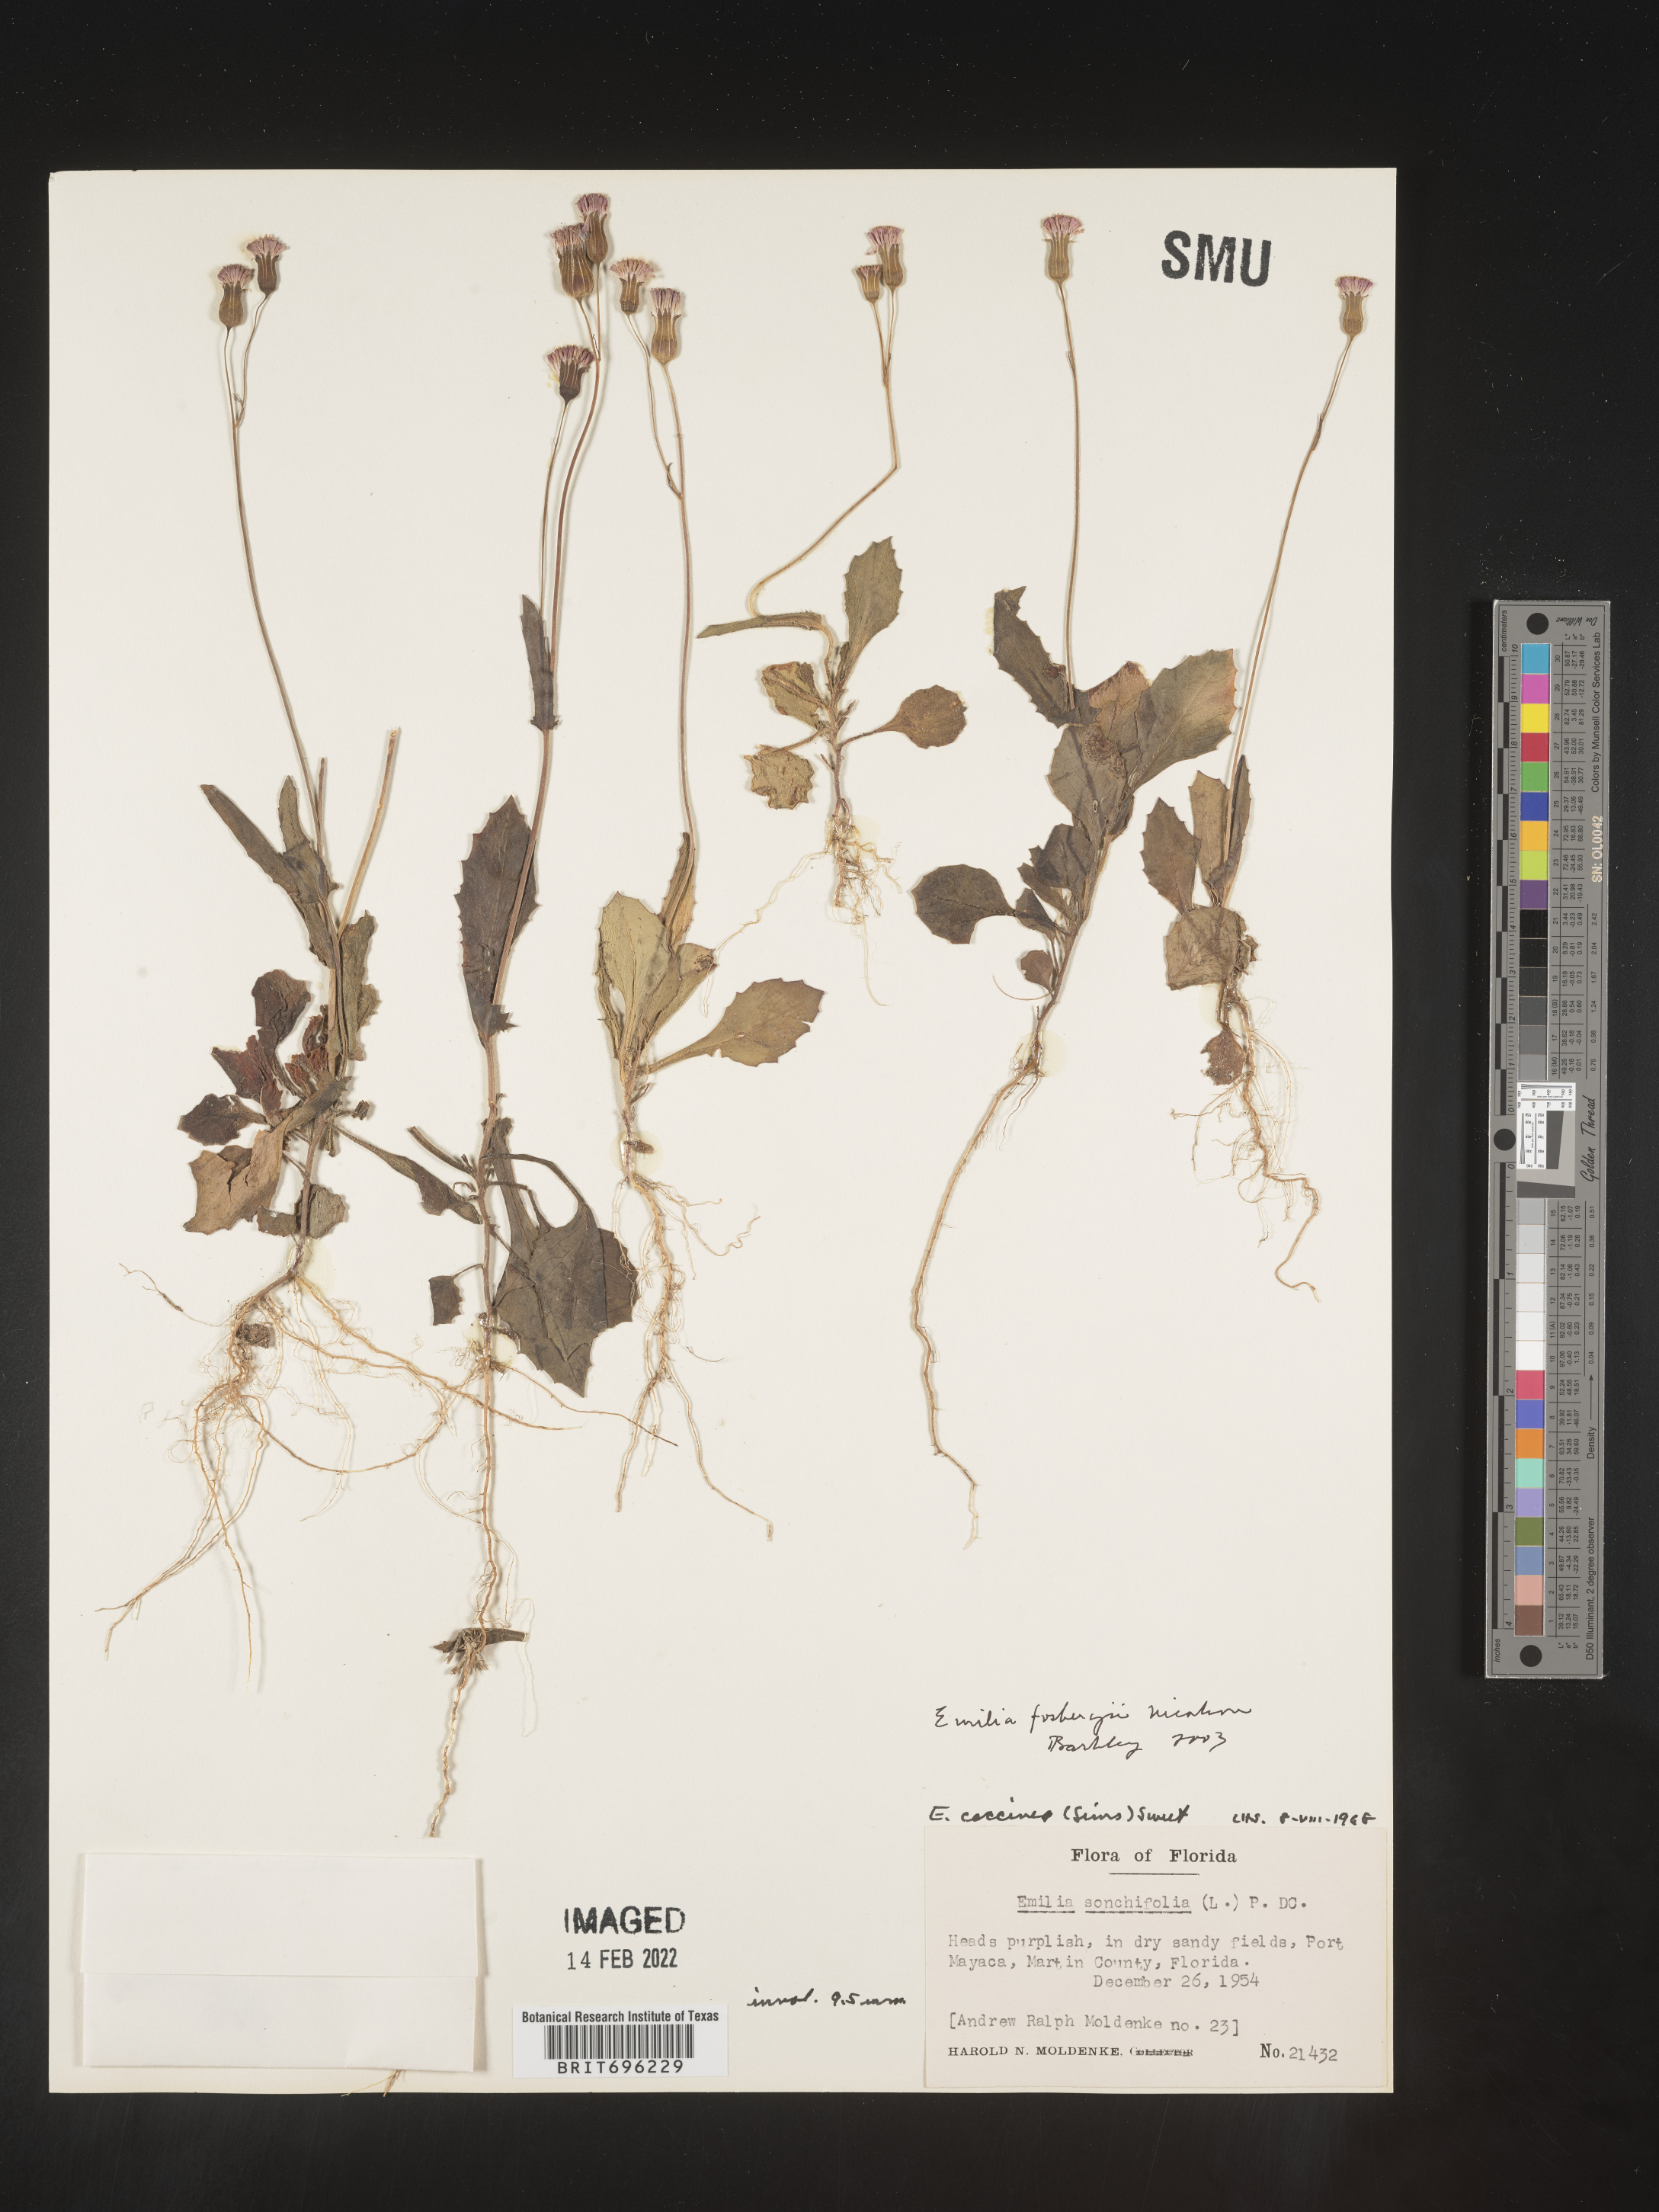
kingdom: Plantae
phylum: Tracheophyta
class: Magnoliopsida
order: Asterales
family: Asteraceae
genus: Emilia
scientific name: Emilia fosbergii
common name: Florida tasselflower
